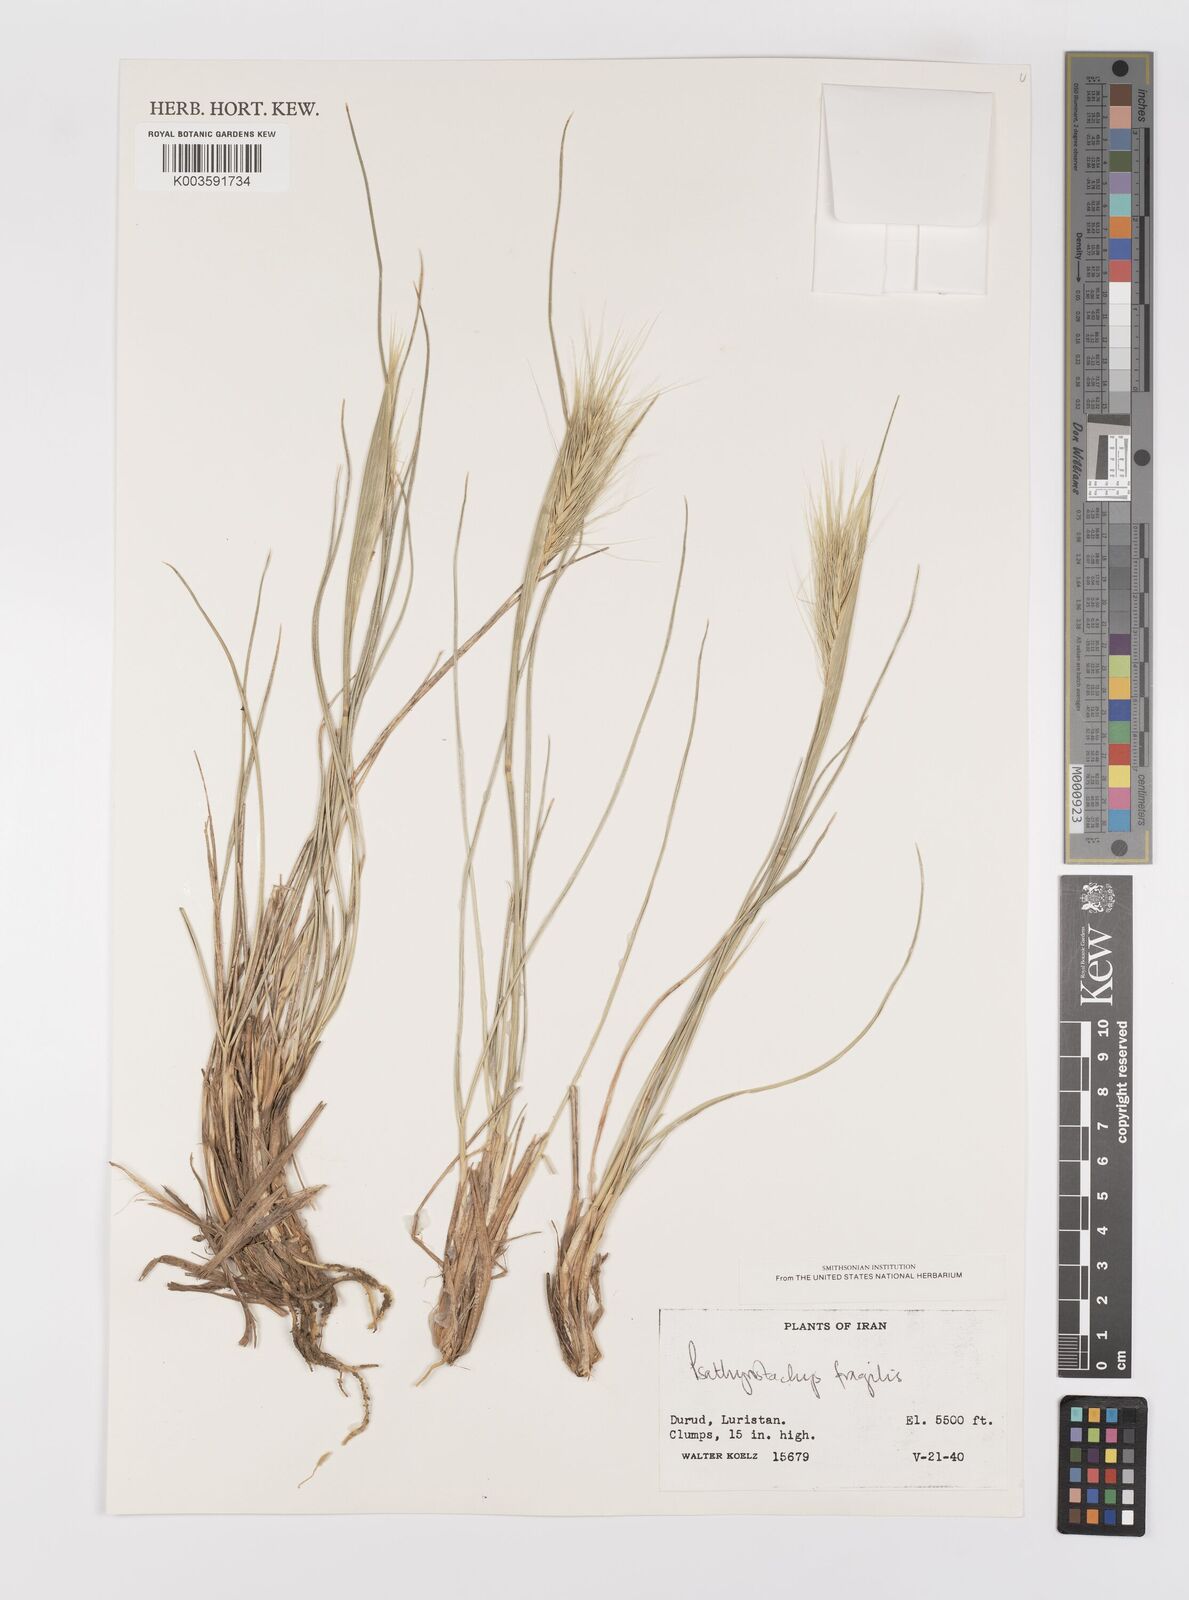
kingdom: Plantae
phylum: Tracheophyta
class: Liliopsida
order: Poales
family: Poaceae
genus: Psathyrostachys
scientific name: Psathyrostachys fragilis
